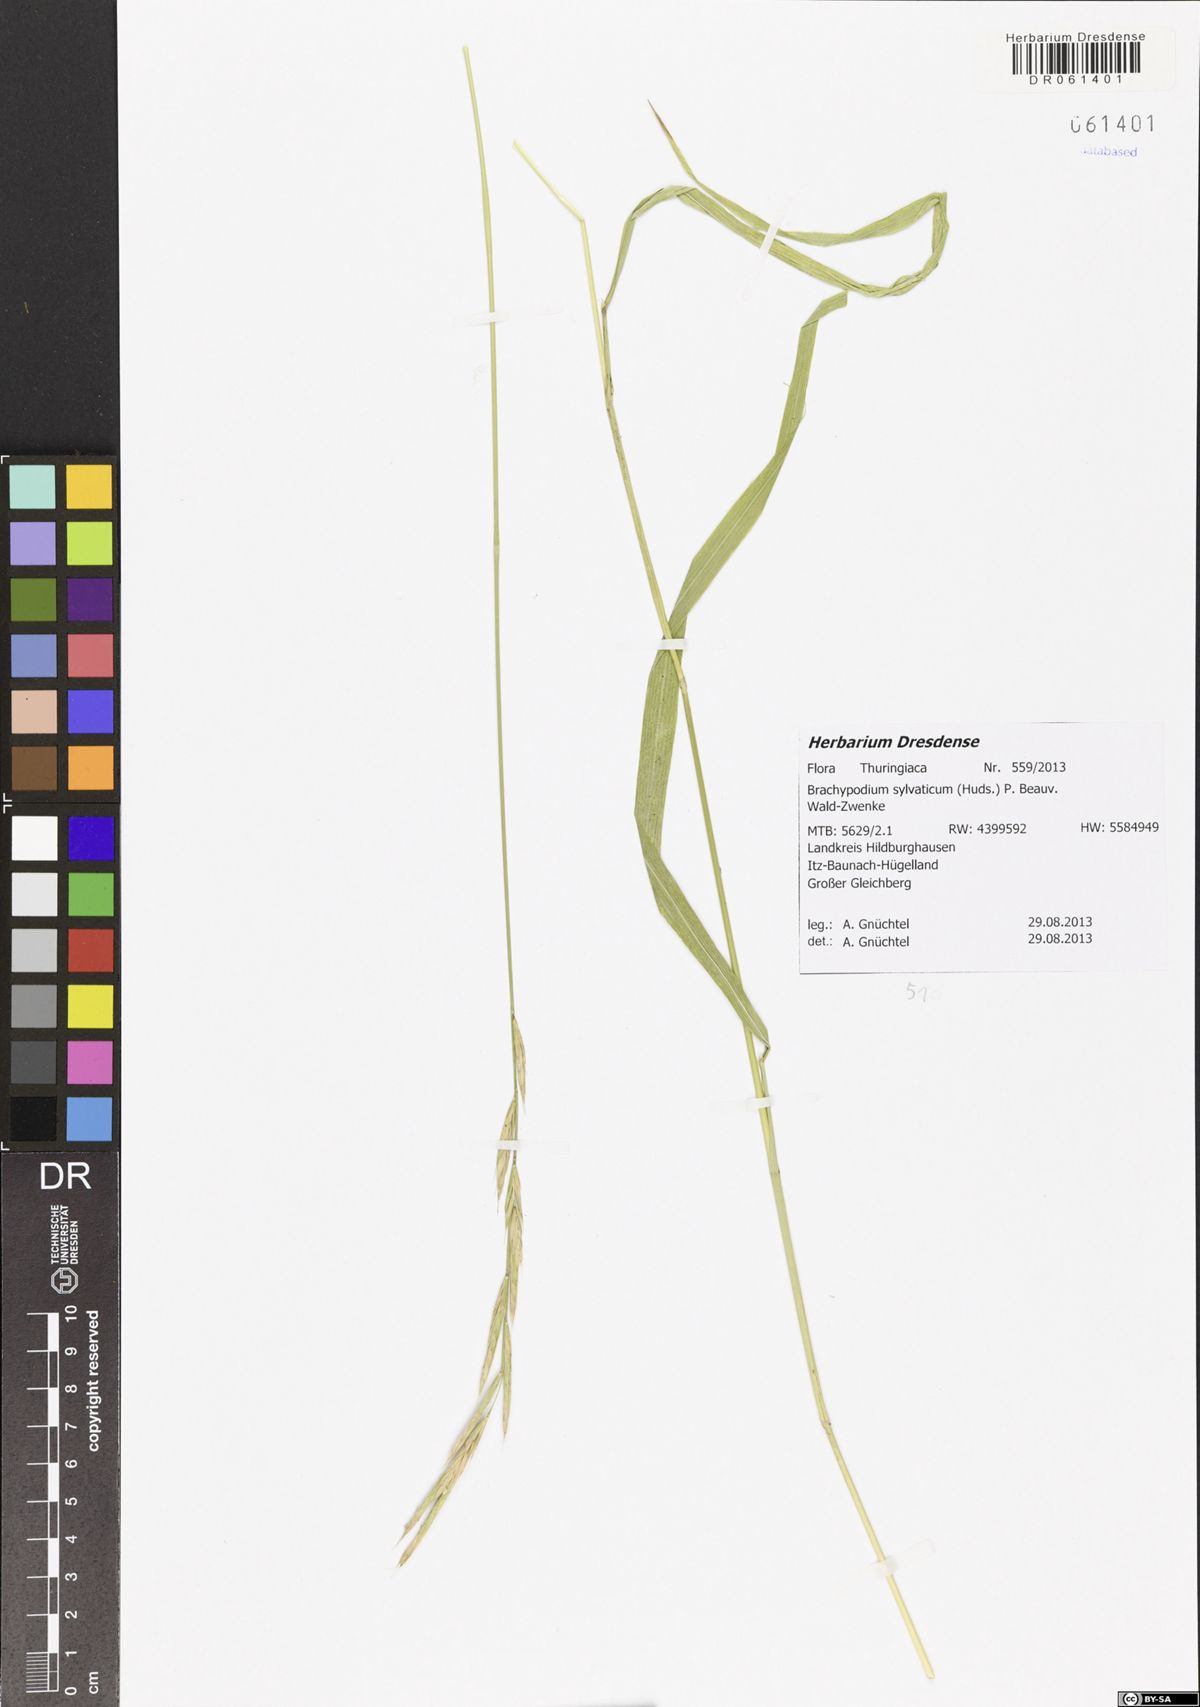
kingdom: Plantae
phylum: Tracheophyta
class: Liliopsida
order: Poales
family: Poaceae
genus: Brachypodium
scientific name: Brachypodium sylvaticum
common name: False-brome
